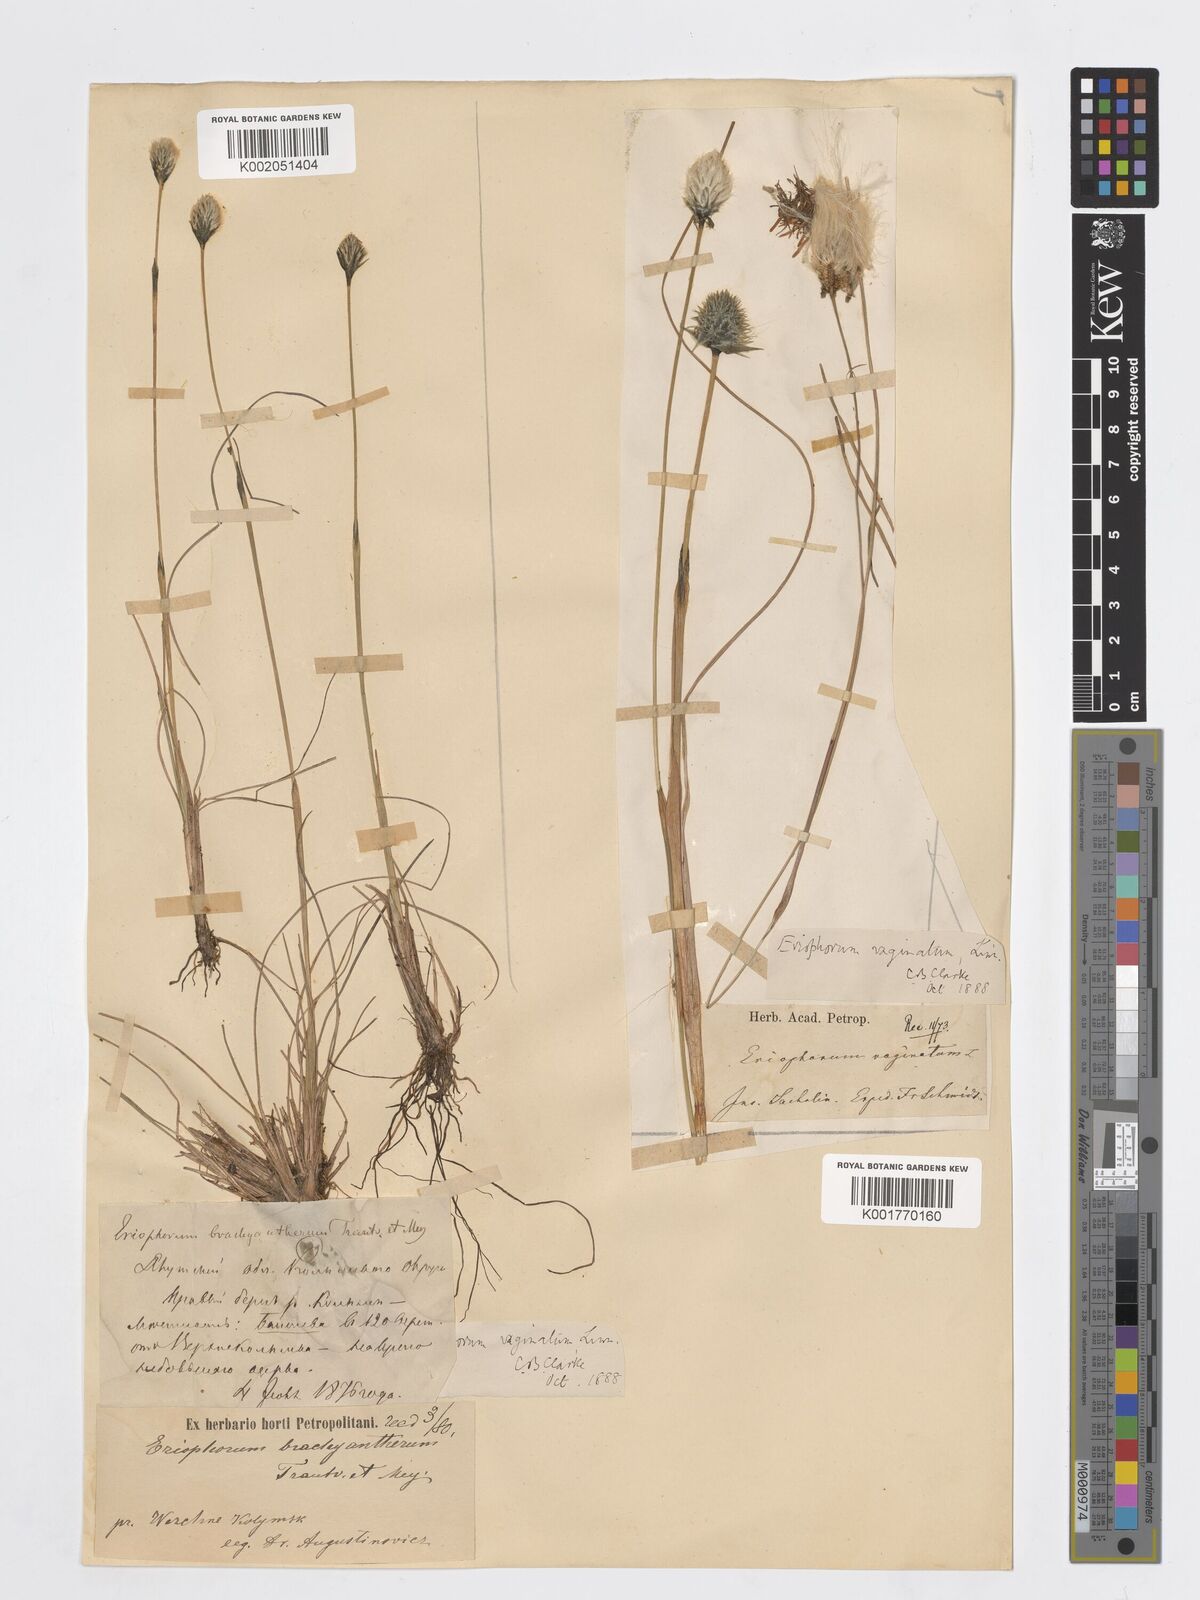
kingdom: Plantae
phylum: Tracheophyta
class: Liliopsida
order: Poales
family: Cyperaceae
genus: Eriophorum
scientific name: Eriophorum vaginatum
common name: Hare's-tail cottongrass
